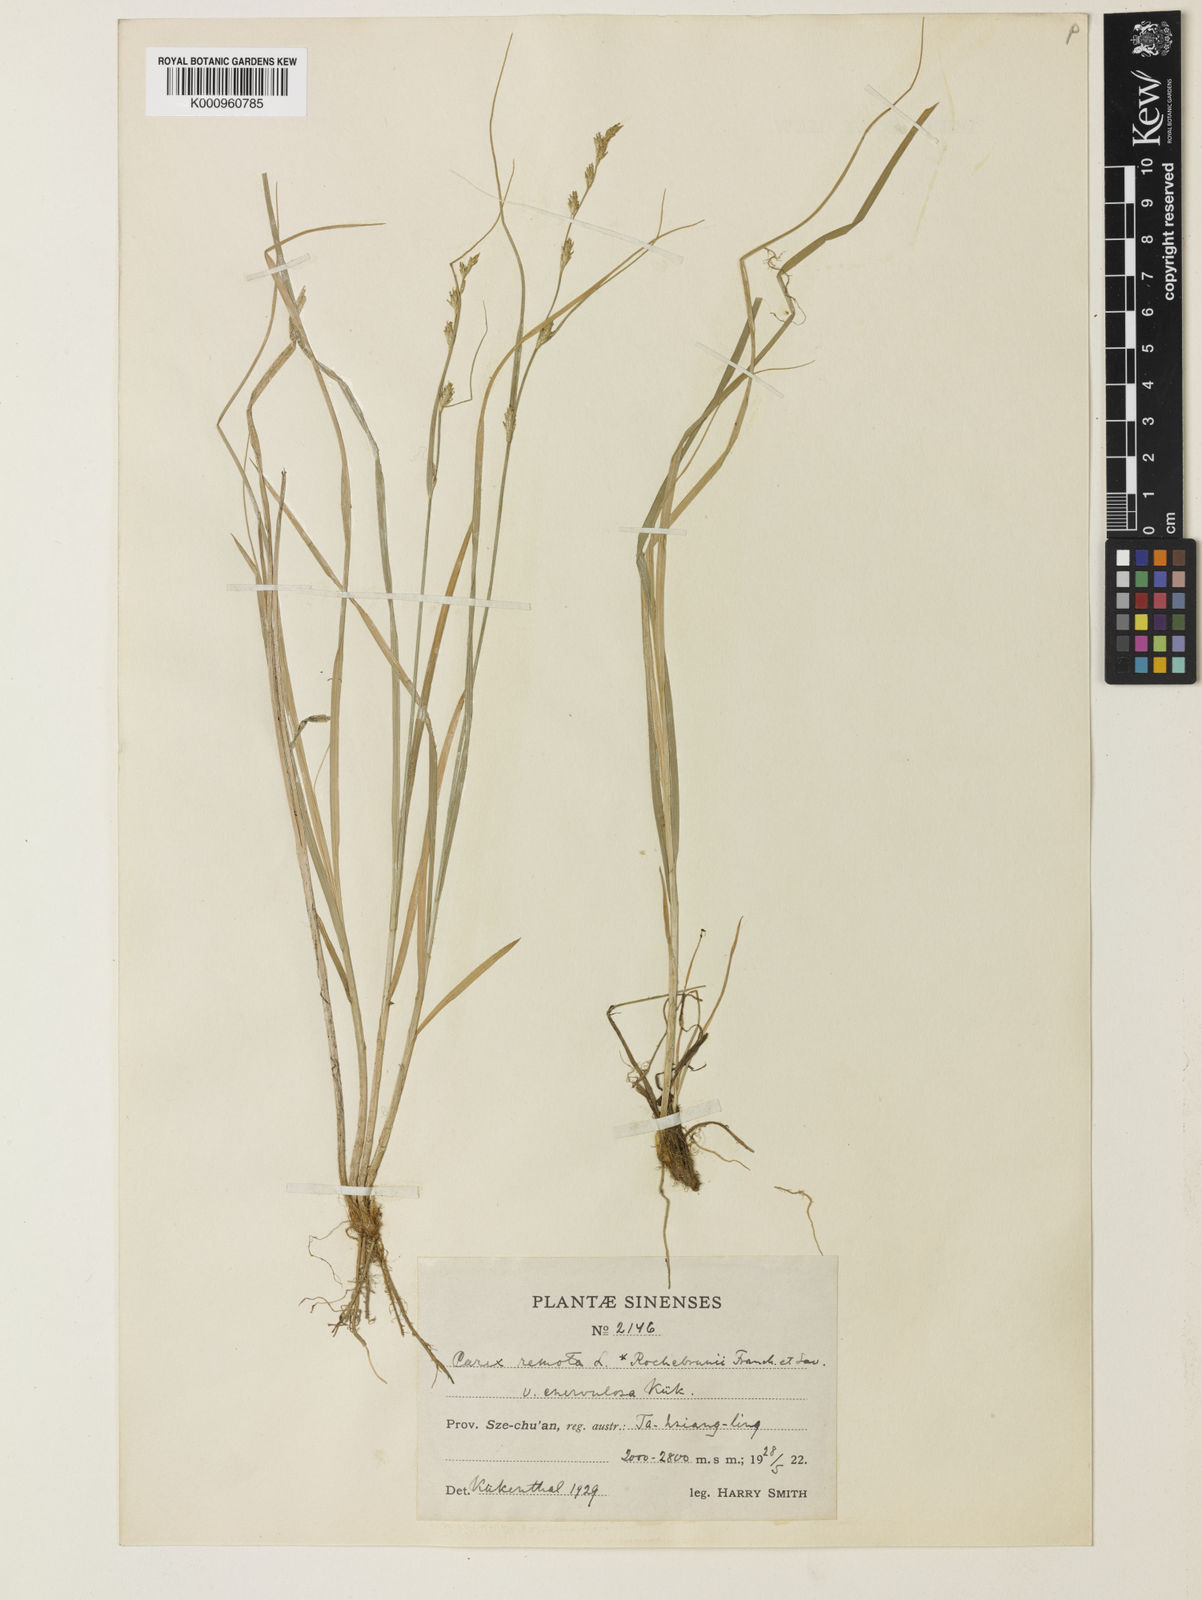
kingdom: Plantae
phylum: Tracheophyta
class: Liliopsida
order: Poales
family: Cyperaceae
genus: Carex
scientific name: Carex remota
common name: Remote sedge
